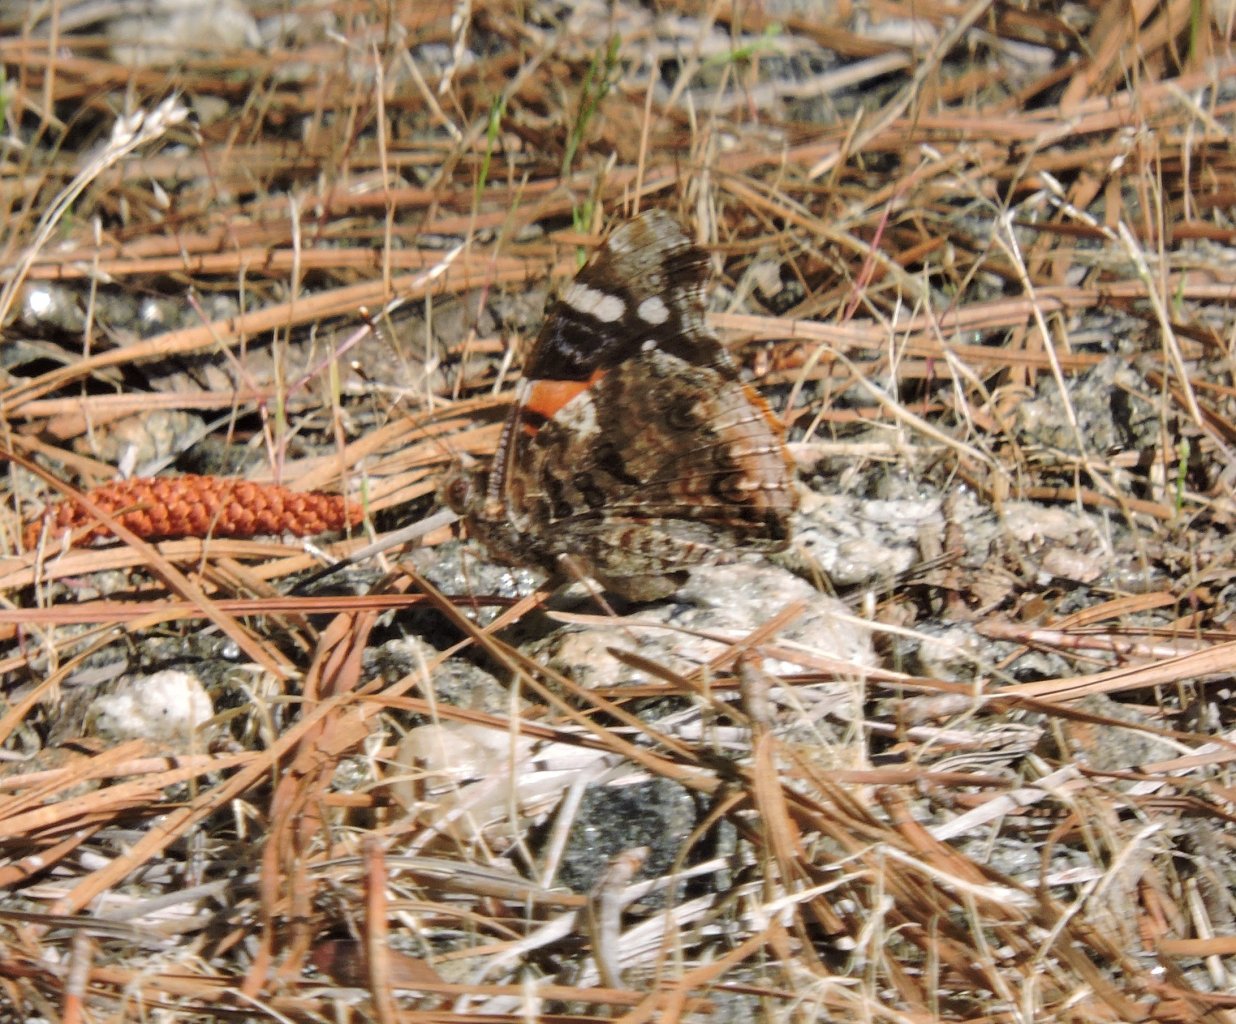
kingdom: Animalia
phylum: Arthropoda
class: Insecta
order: Lepidoptera
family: Nymphalidae
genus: Vanessa
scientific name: Vanessa atalanta
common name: Red Admiral
